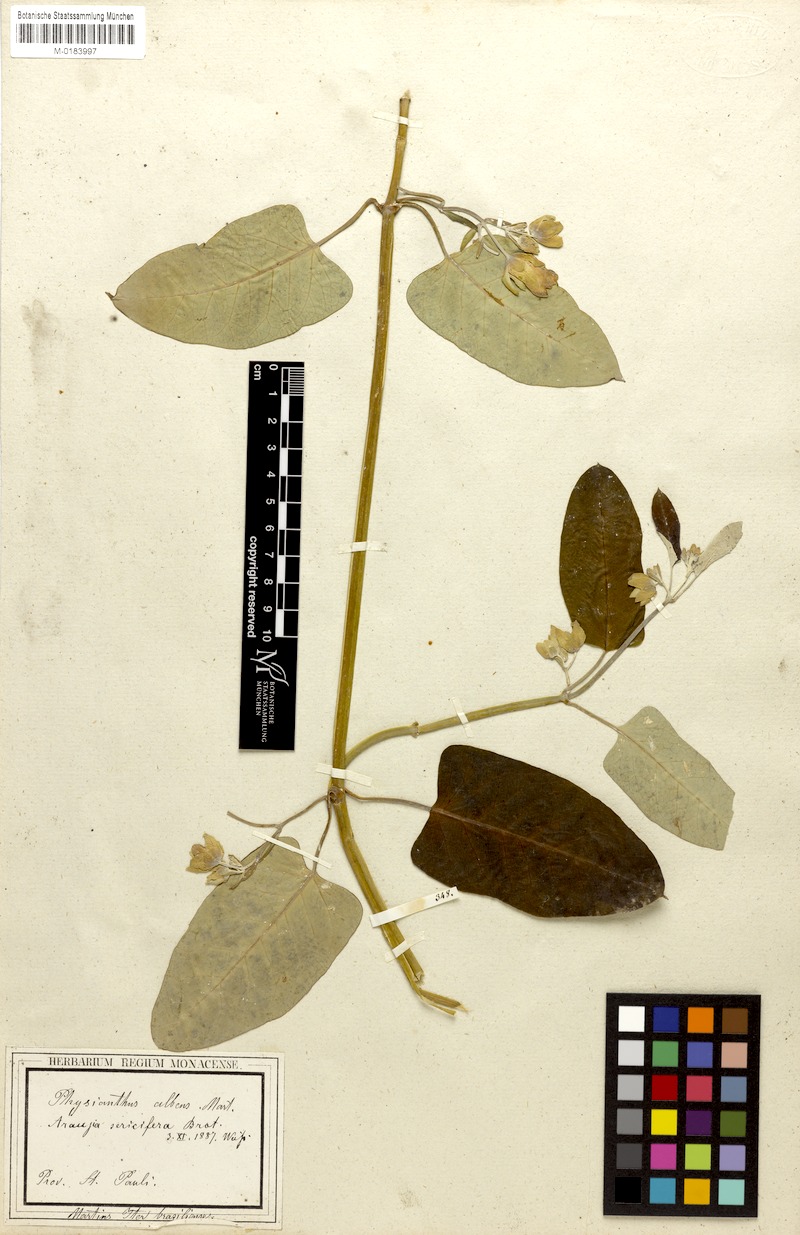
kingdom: Plantae
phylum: Tracheophyta
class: Magnoliopsida
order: Gentianales
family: Apocynaceae
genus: Araujia
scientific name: Araujia sericifera
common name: White bladderflower
